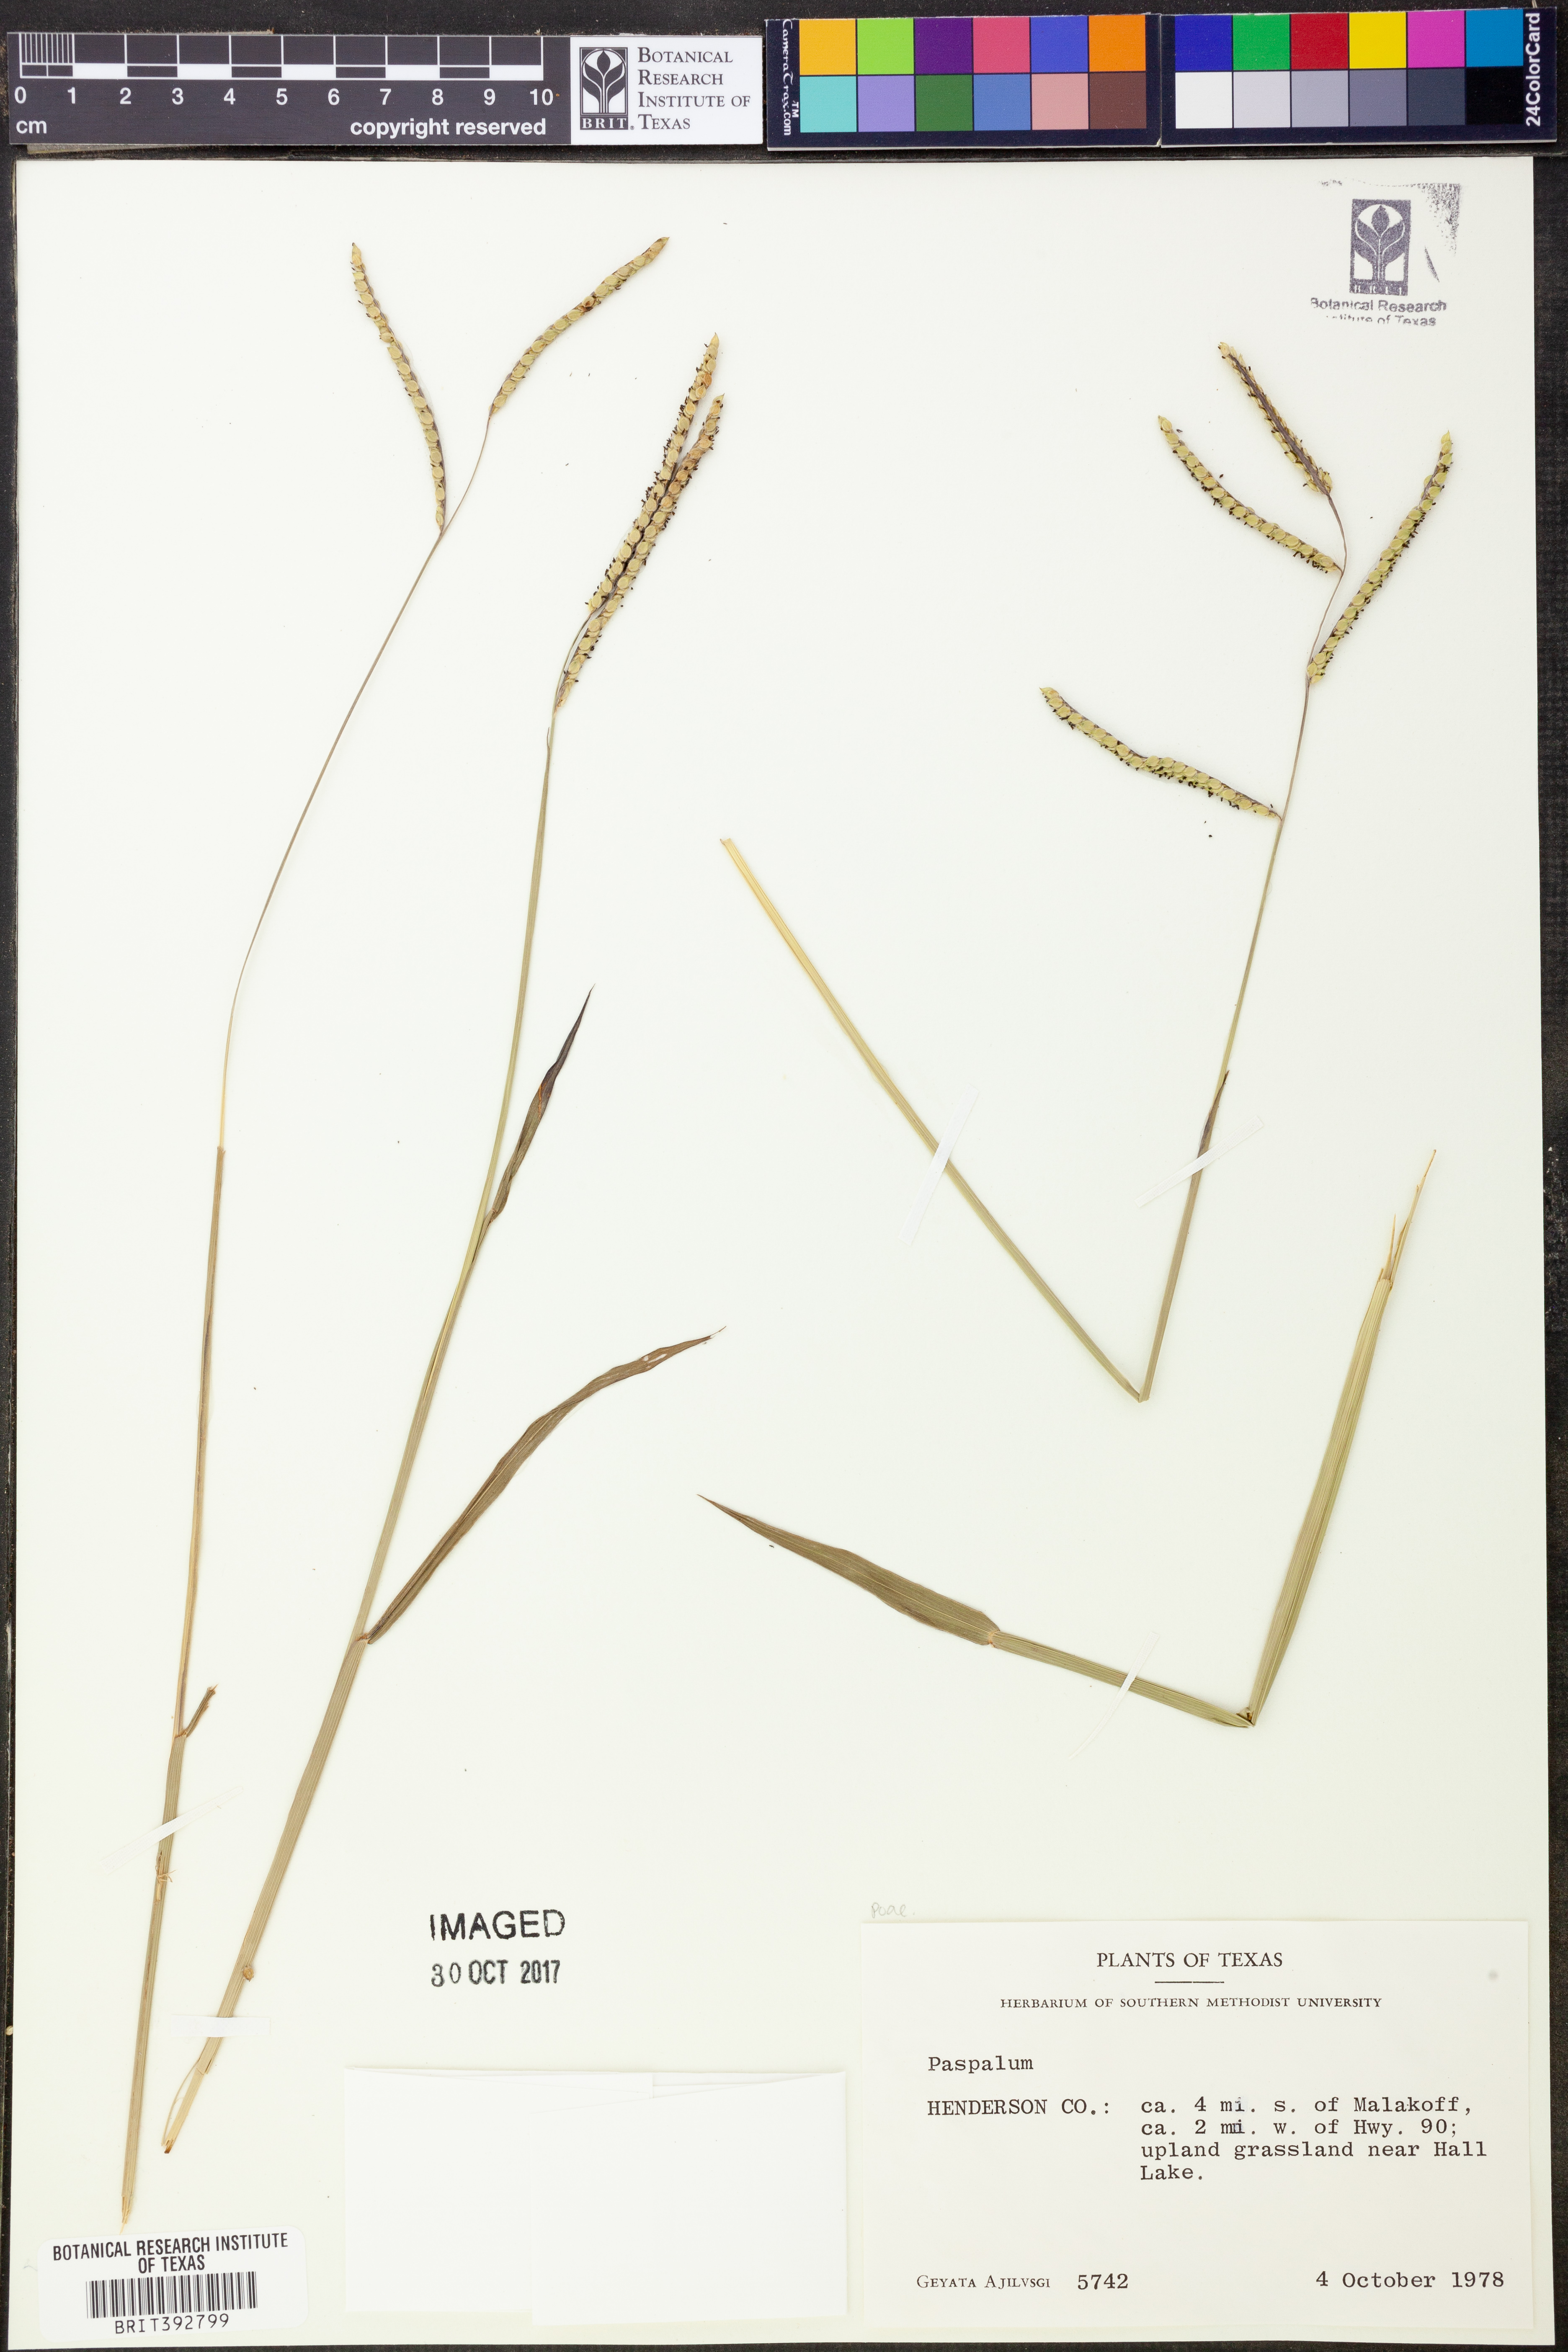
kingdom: Plantae
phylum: Tracheophyta
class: Liliopsida
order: Poales
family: Poaceae
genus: Paspalum
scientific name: Paspalum
